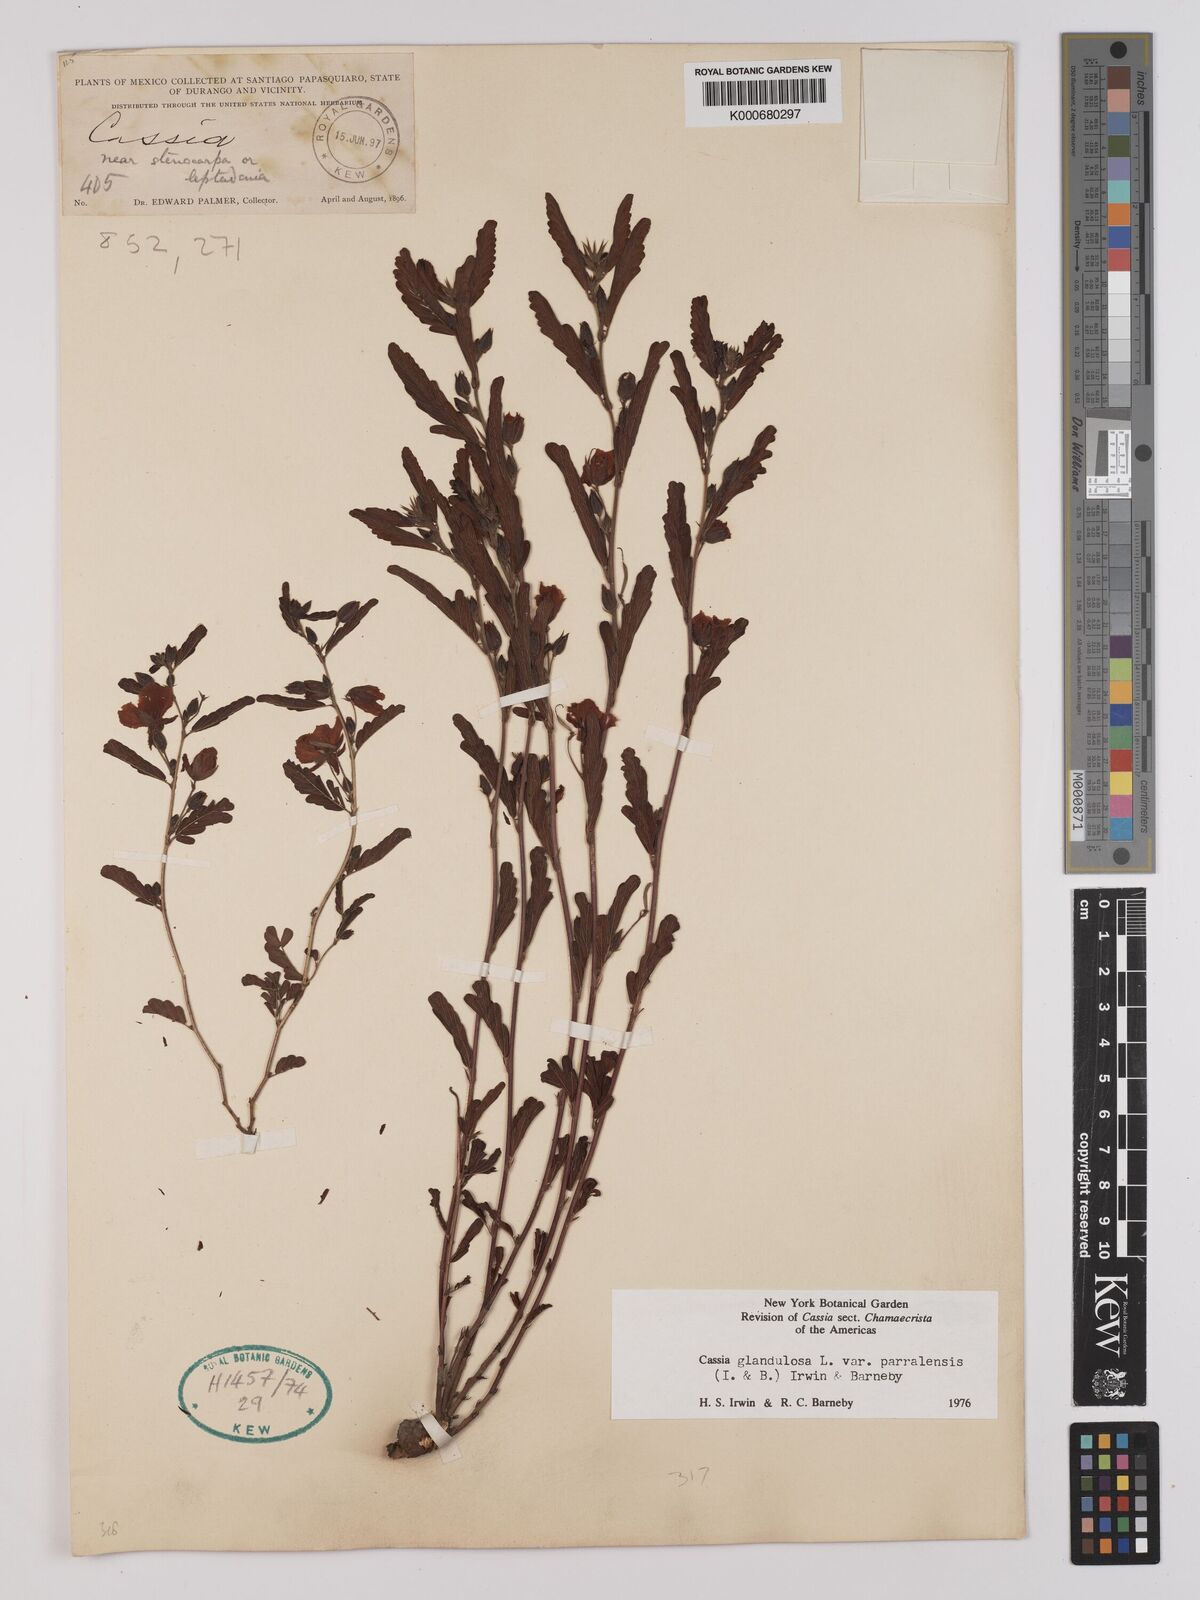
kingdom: Plantae
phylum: Tracheophyta
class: Magnoliopsida
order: Fabales
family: Fabaceae
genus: Chamaecrista
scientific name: Chamaecrista glandulosa
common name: Wild peas
